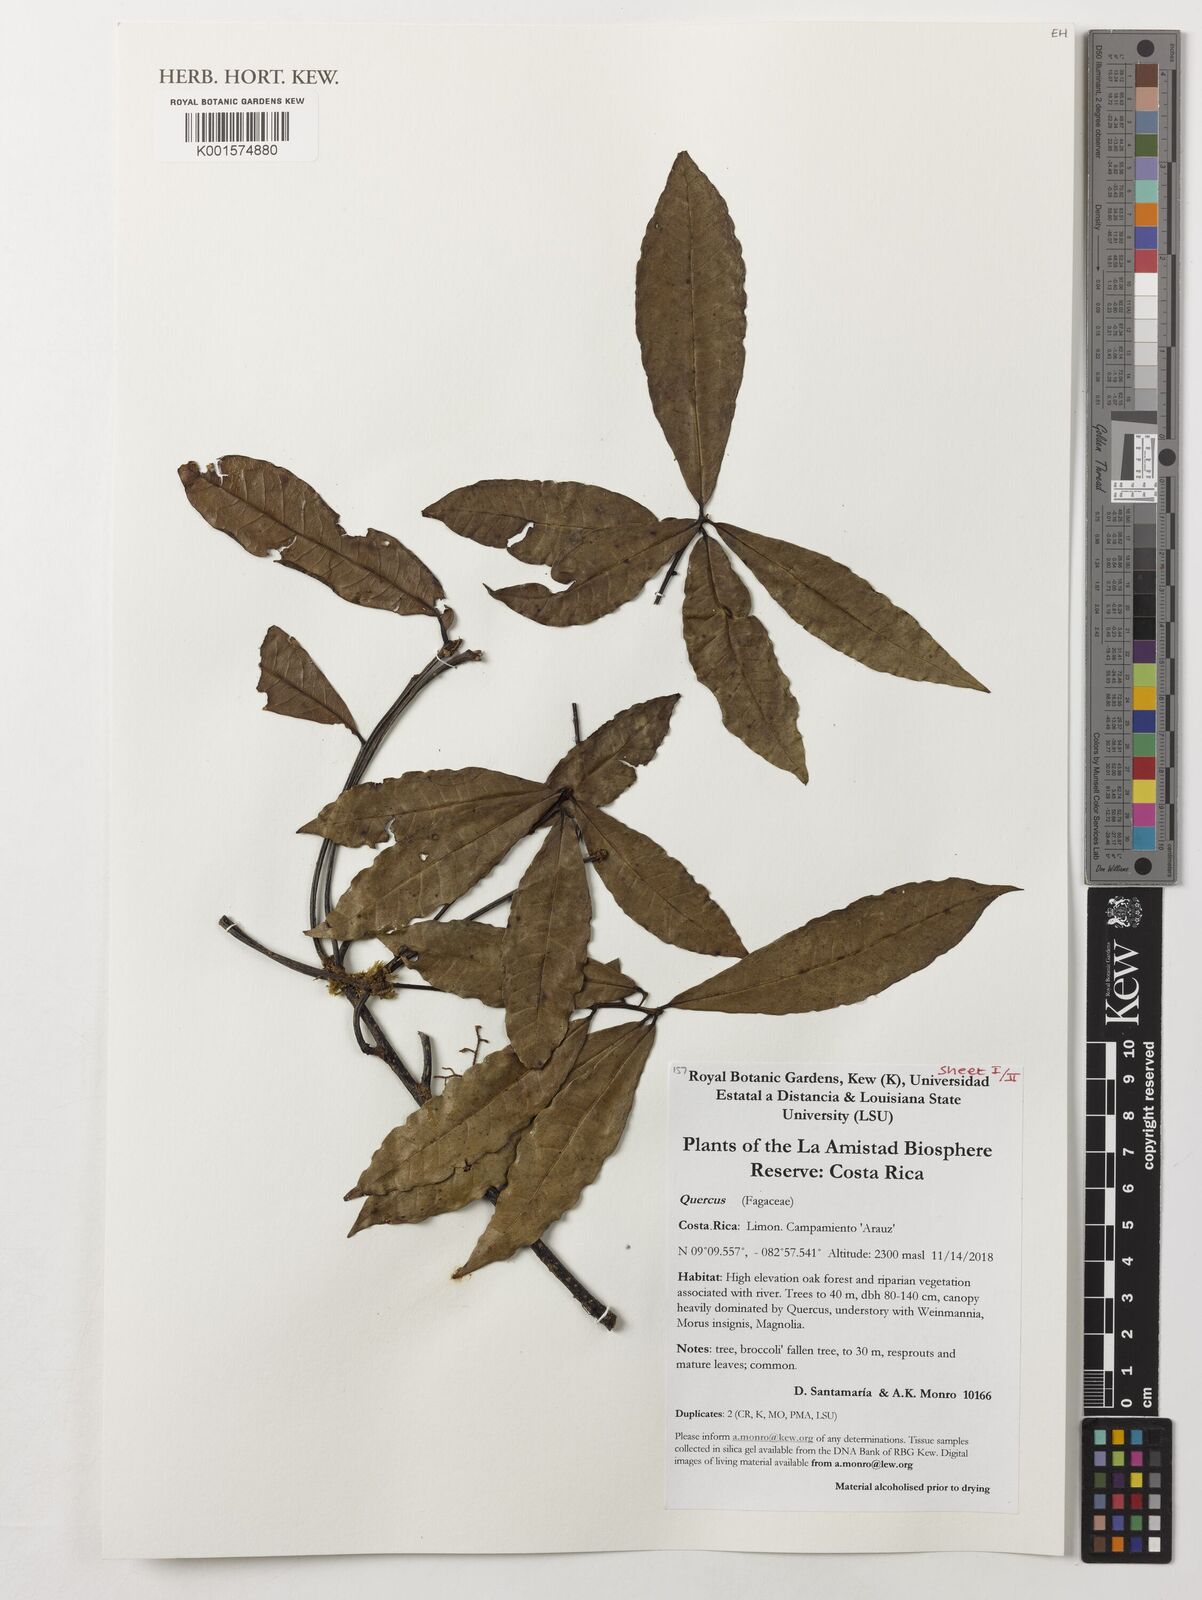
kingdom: Plantae
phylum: Tracheophyta
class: Magnoliopsida
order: Fagales
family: Fagaceae
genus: Quercus
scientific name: Quercus
